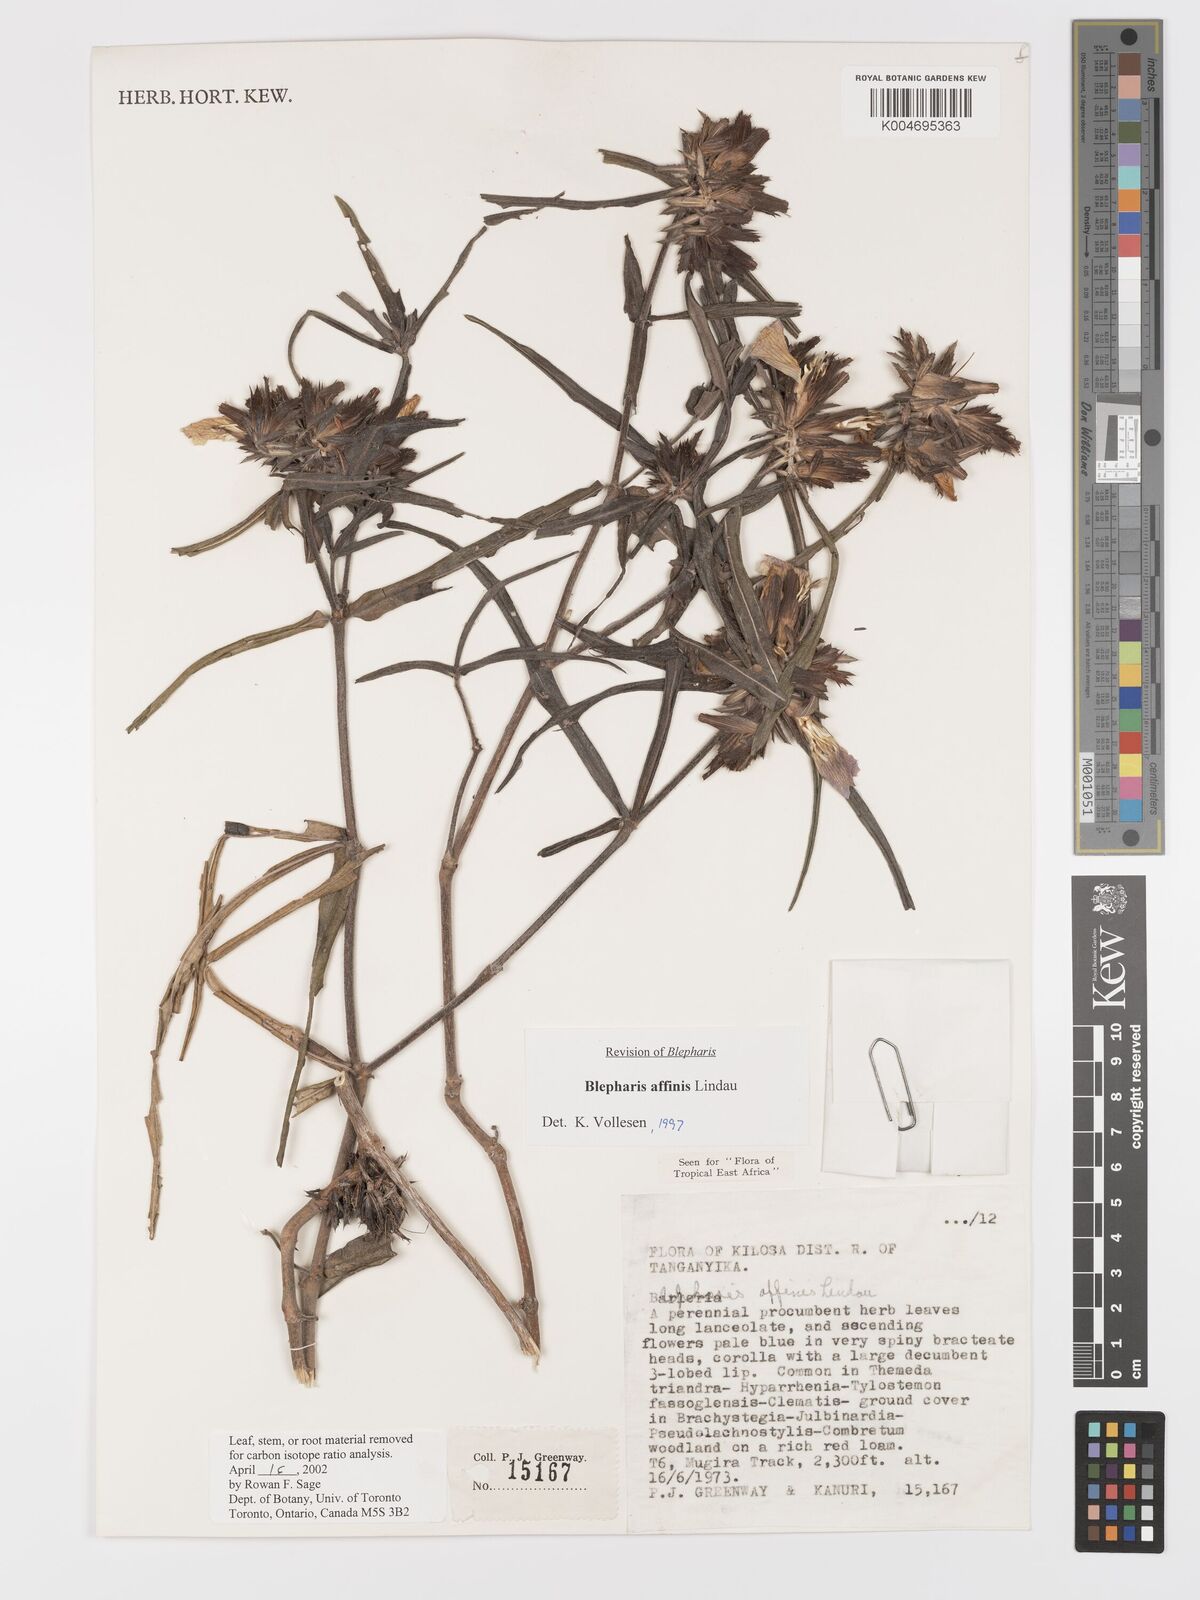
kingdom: Plantae
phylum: Tracheophyta
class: Magnoliopsida
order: Lamiales
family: Acanthaceae
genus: Blepharis
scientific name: Blepharis affinis
